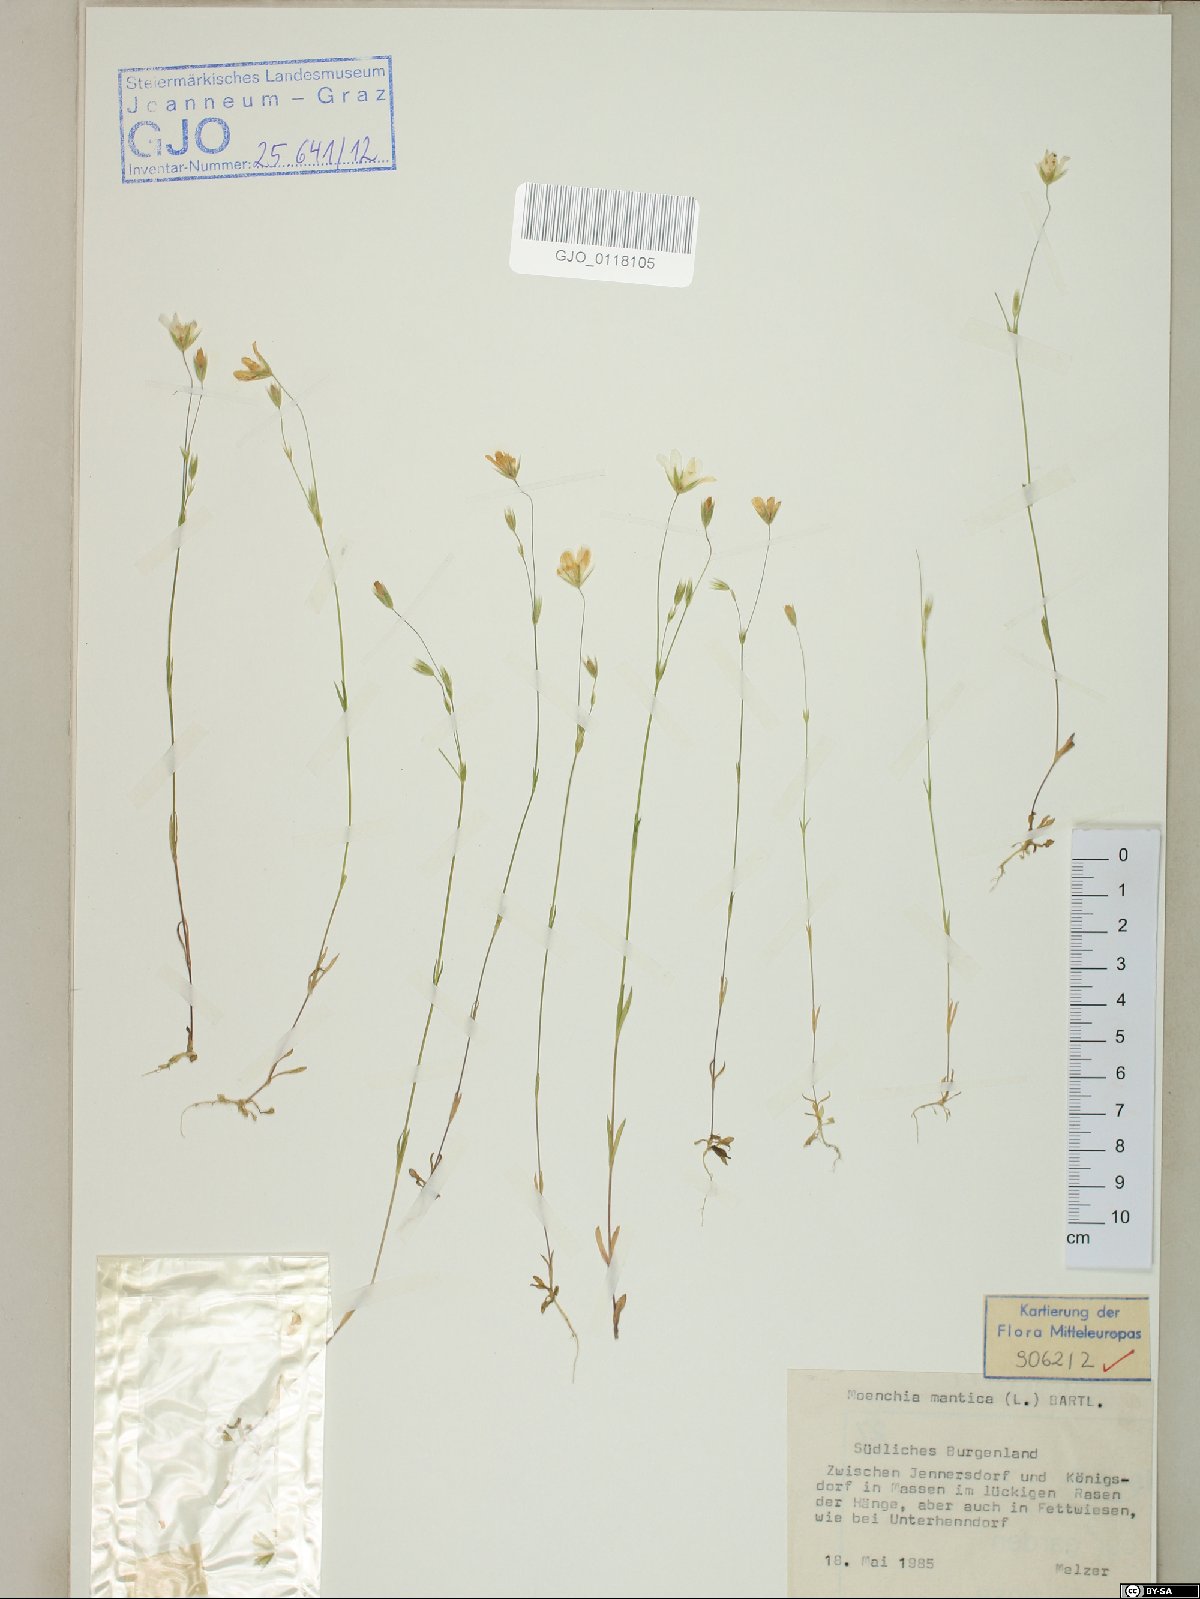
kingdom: Plantae
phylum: Tracheophyta
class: Magnoliopsida
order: Caryophyllales
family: Caryophyllaceae
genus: Moenchia
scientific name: Moenchia mantica
